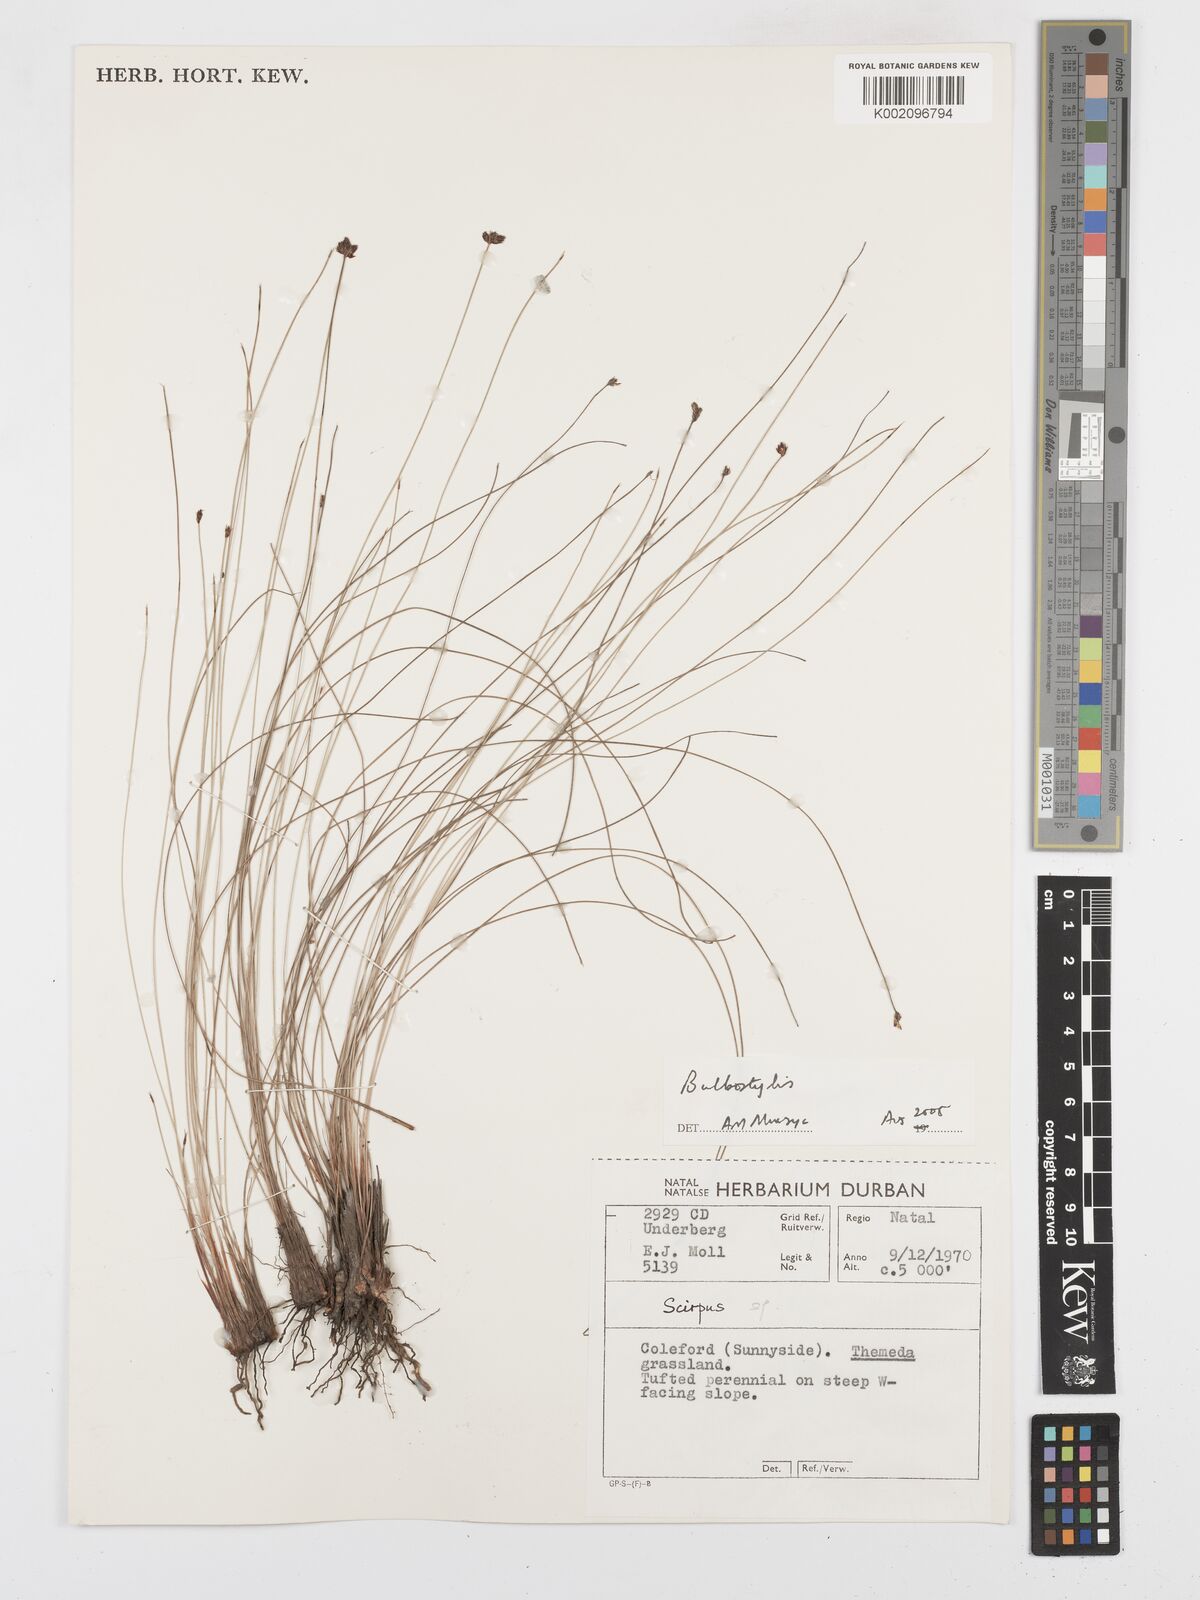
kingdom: Plantae
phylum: Tracheophyta
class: Liliopsida
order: Poales
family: Cyperaceae
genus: Bulbostylis
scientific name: Bulbostylis
